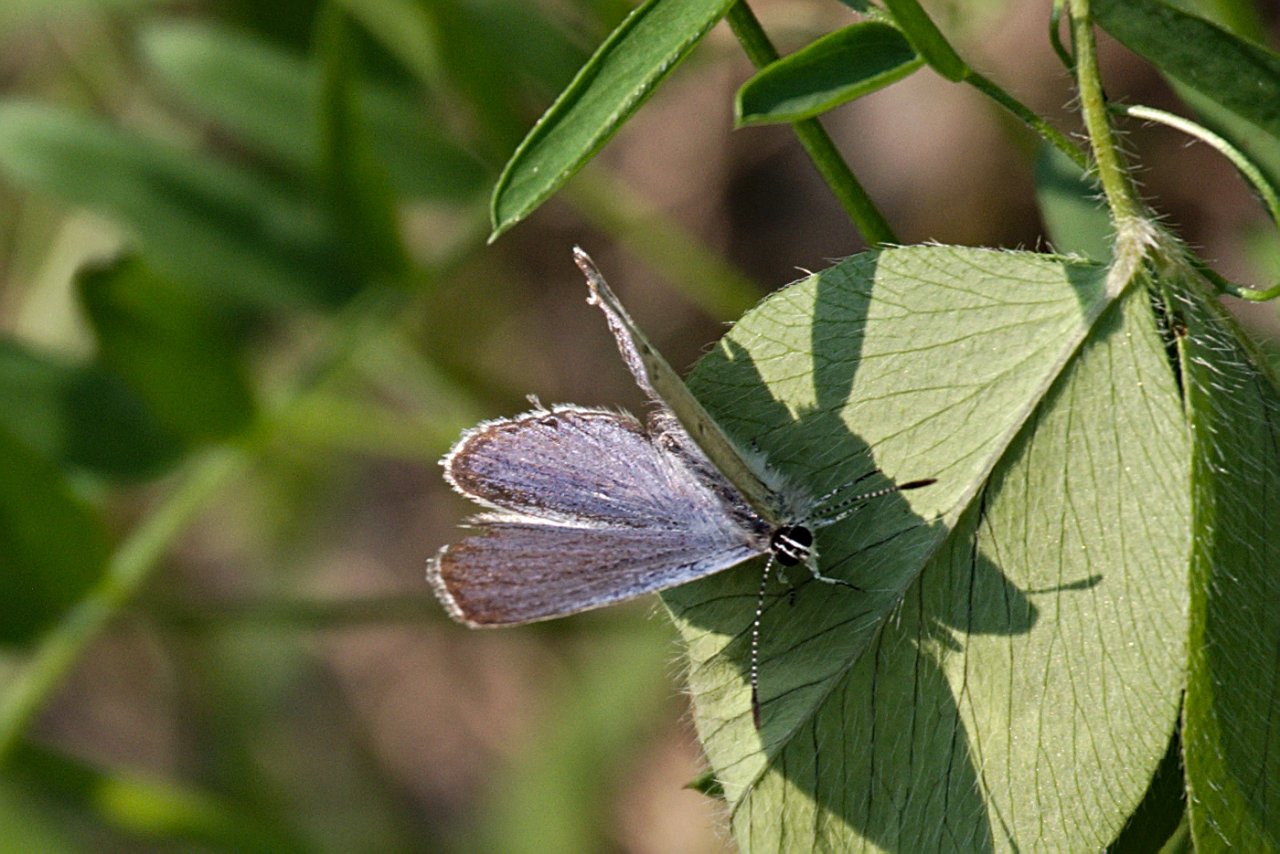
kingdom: Animalia
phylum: Arthropoda
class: Insecta
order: Lepidoptera
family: Lycaenidae
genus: Elkalyce
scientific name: Elkalyce amyntula
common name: Western Tailed-Blue
